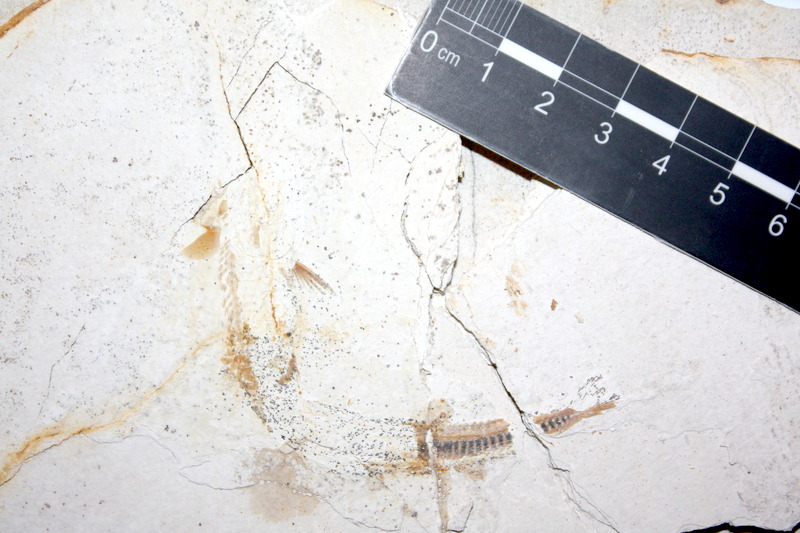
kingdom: Animalia
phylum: Chordata
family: Aspidorhynchidae
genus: Belonostomus
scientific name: Belonostomus kochii
